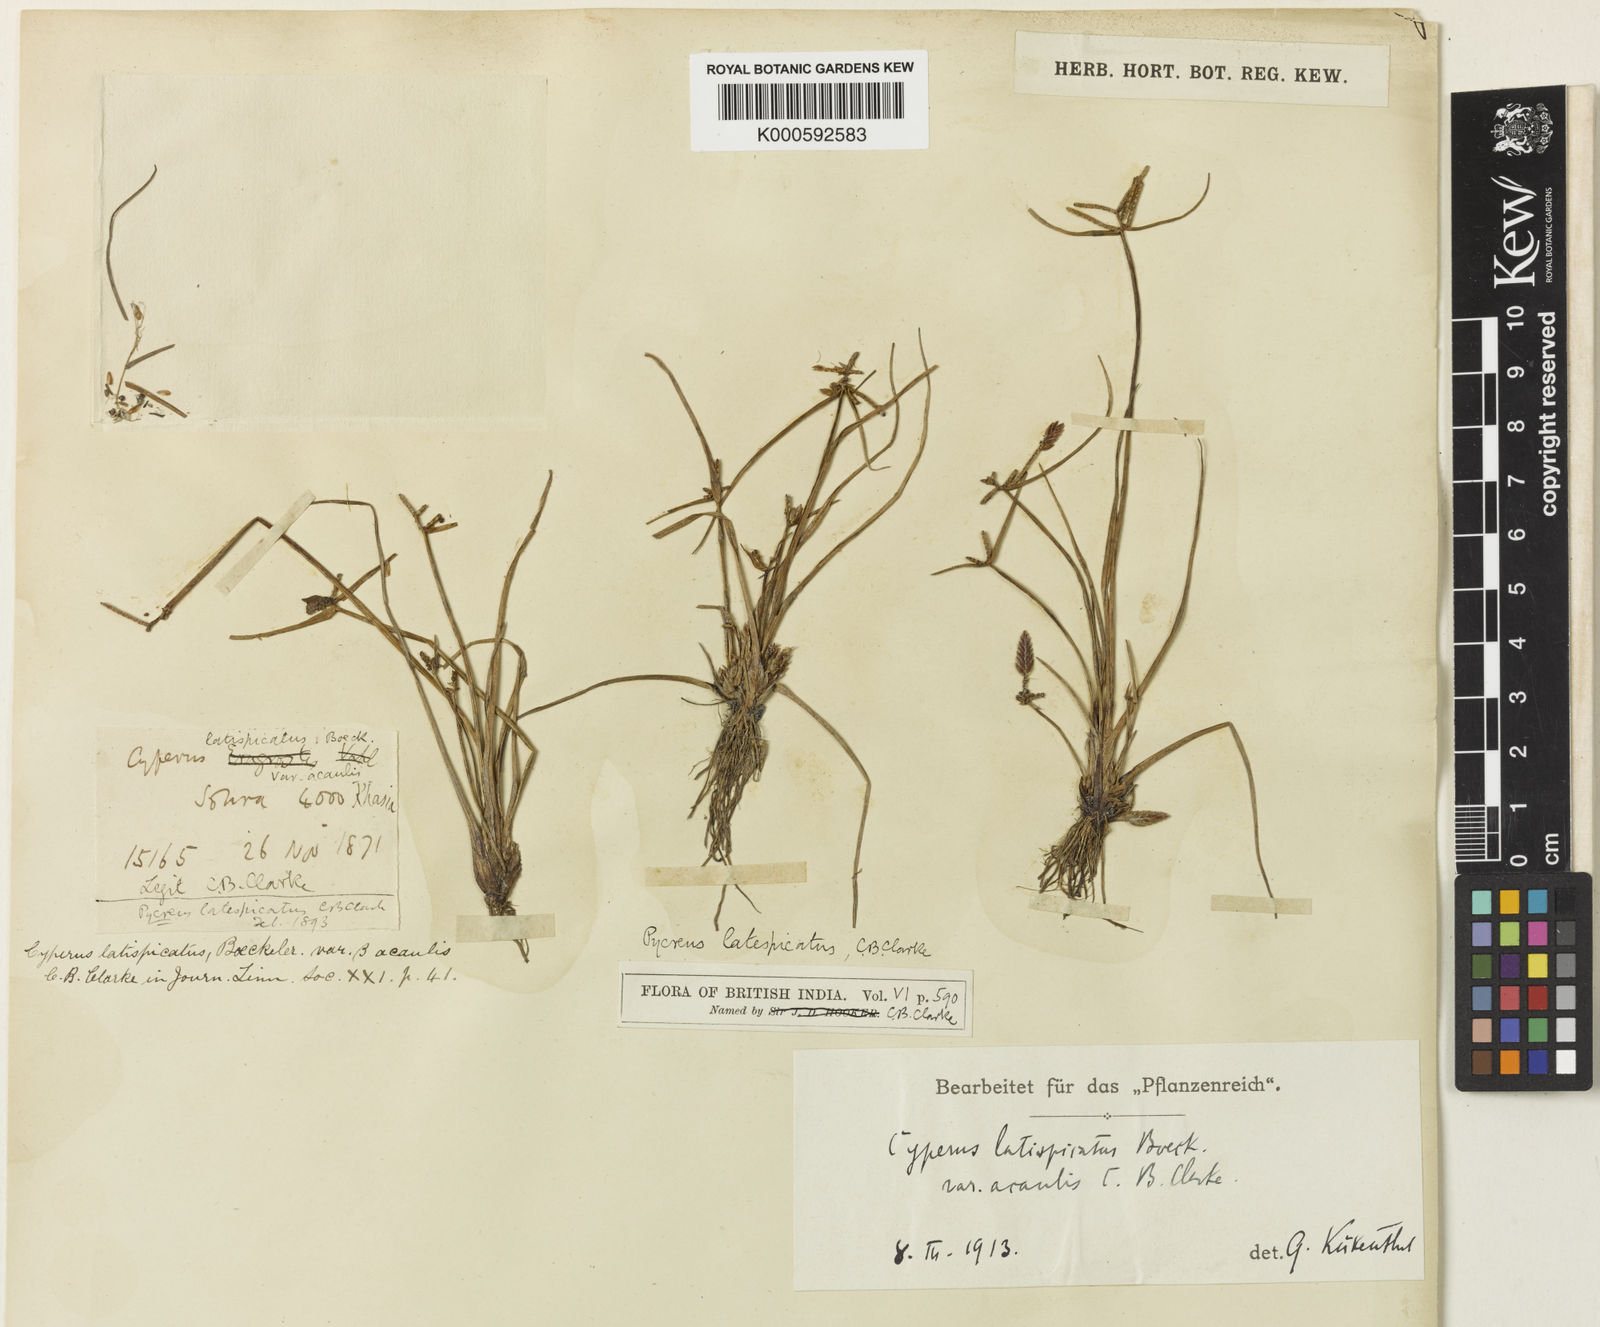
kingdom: Plantae
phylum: Tracheophyta
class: Liliopsida
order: Poales
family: Cyperaceae
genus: Cyperus
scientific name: Cyperus diaphanus
